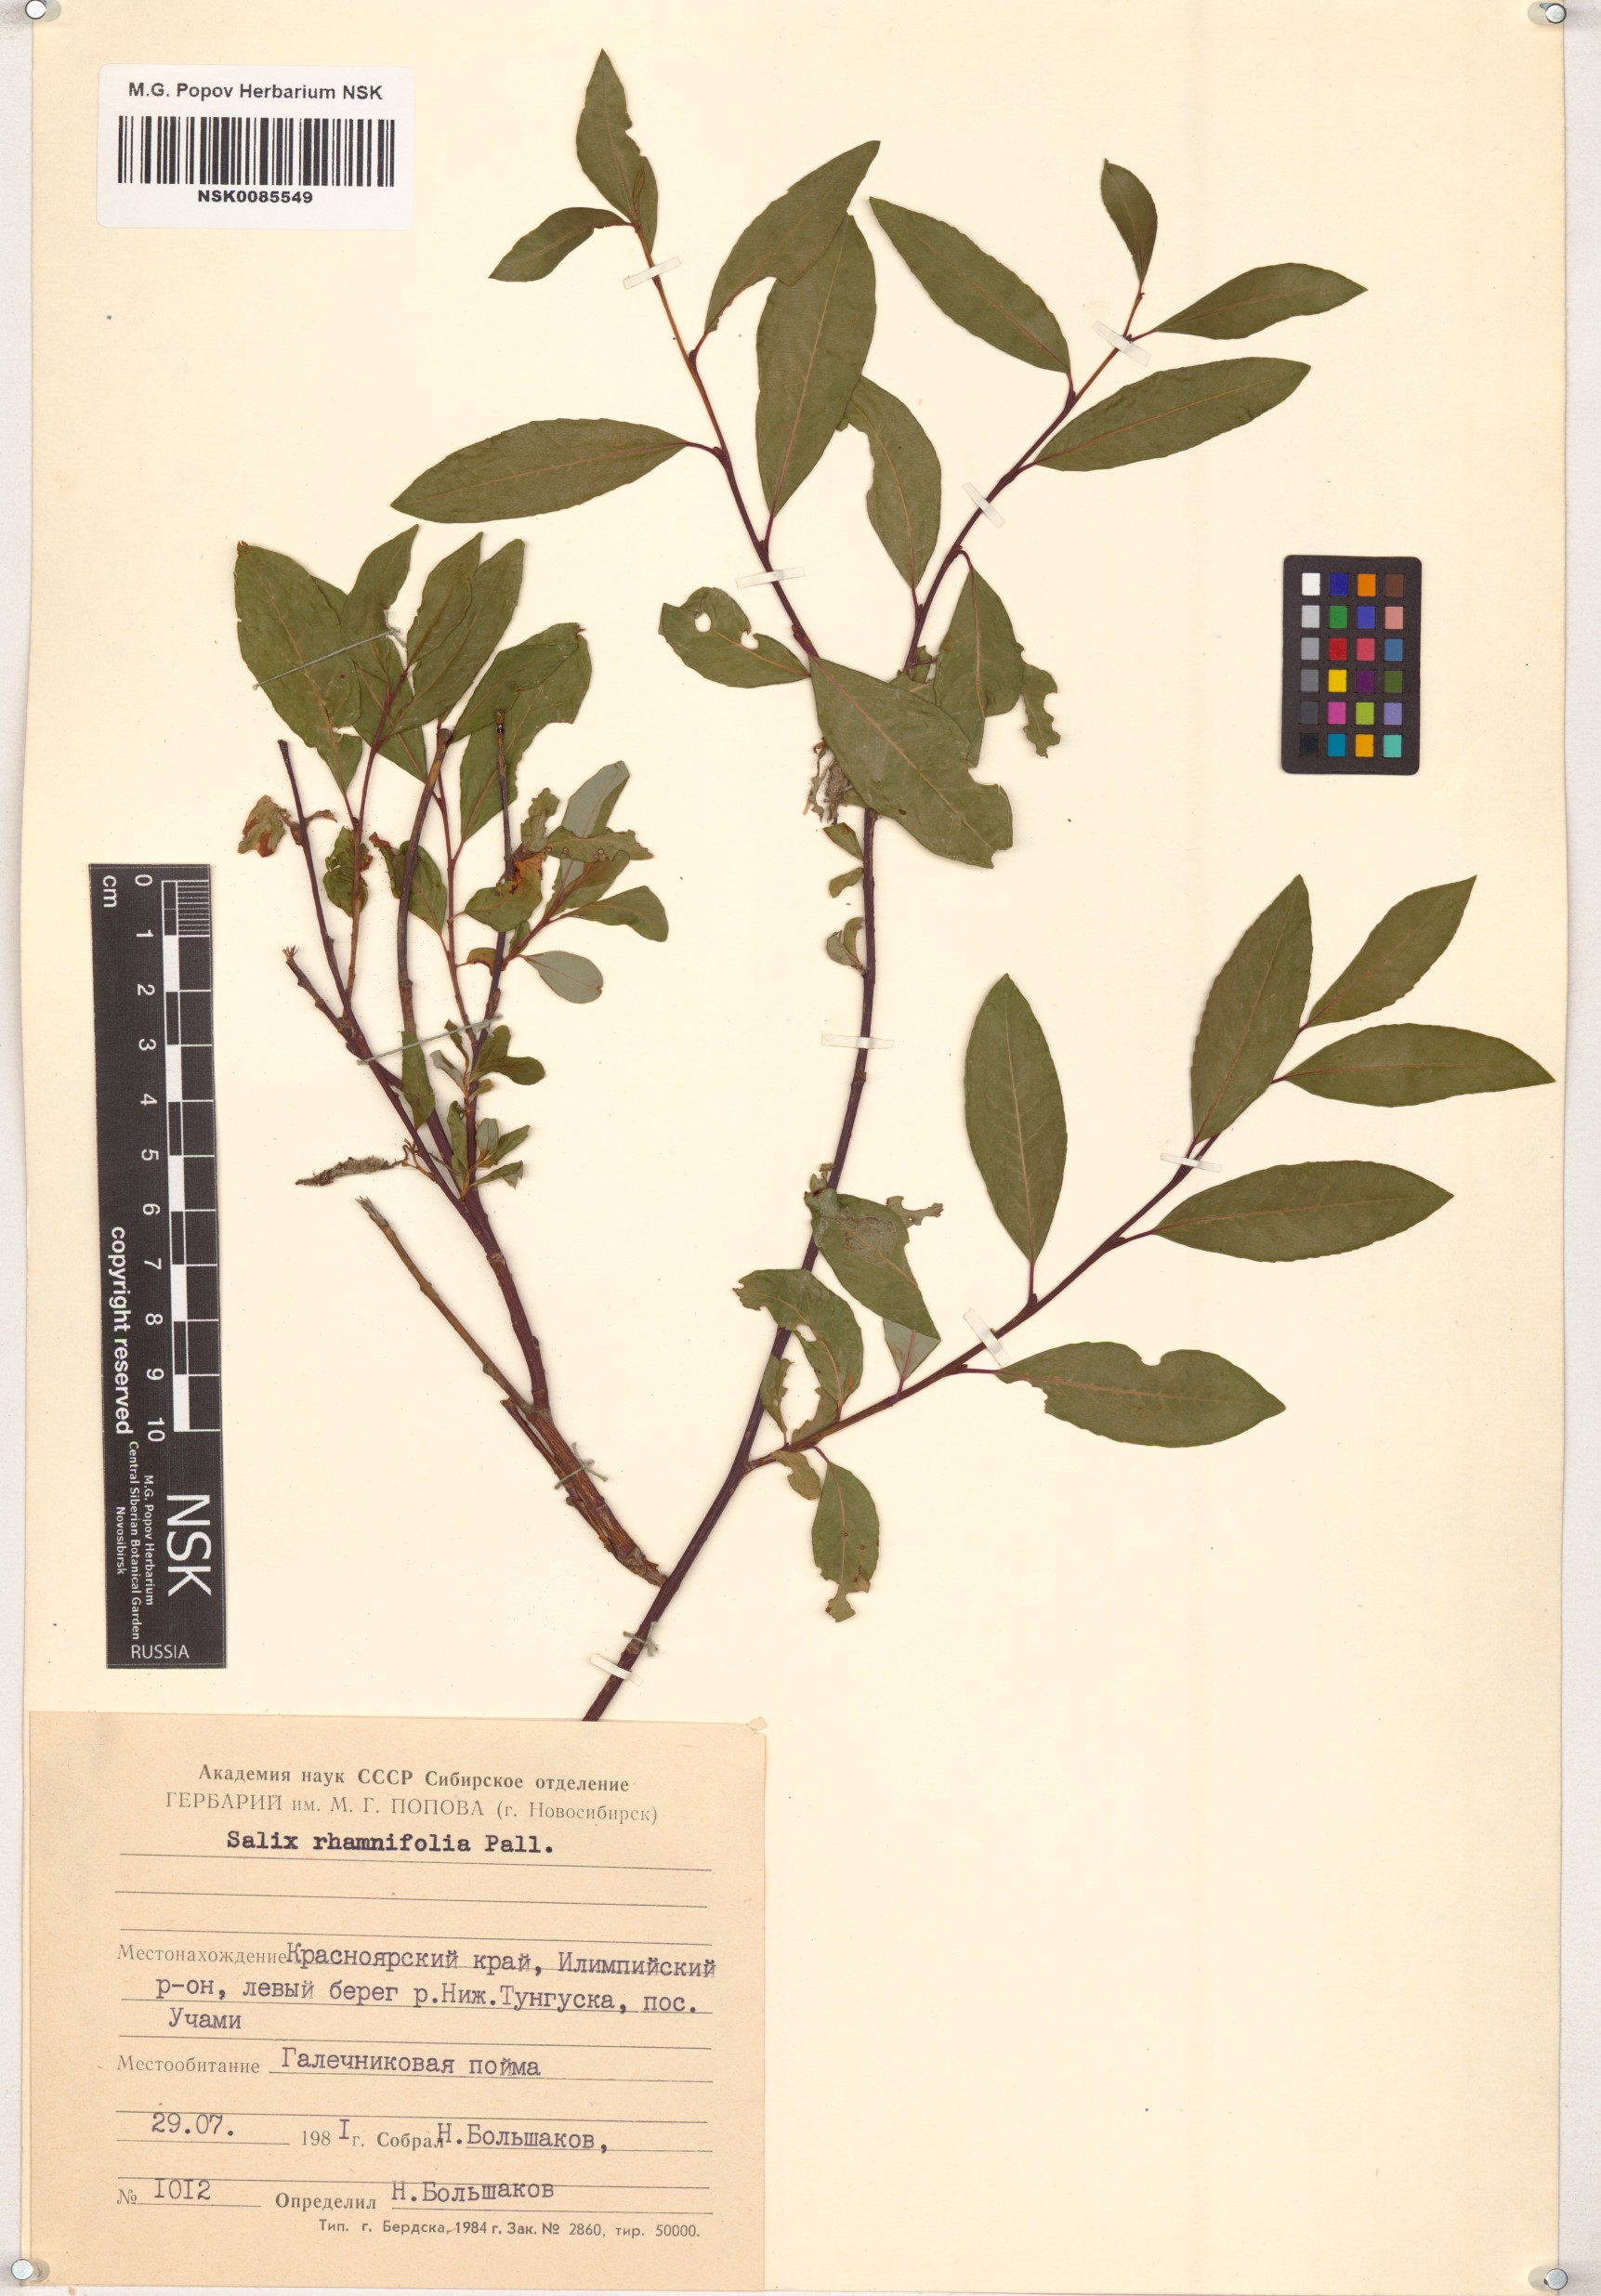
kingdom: Plantae
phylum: Tracheophyta
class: Magnoliopsida
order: Malpighiales
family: Salicaceae
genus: Salix
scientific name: Salix rhamnifolia
